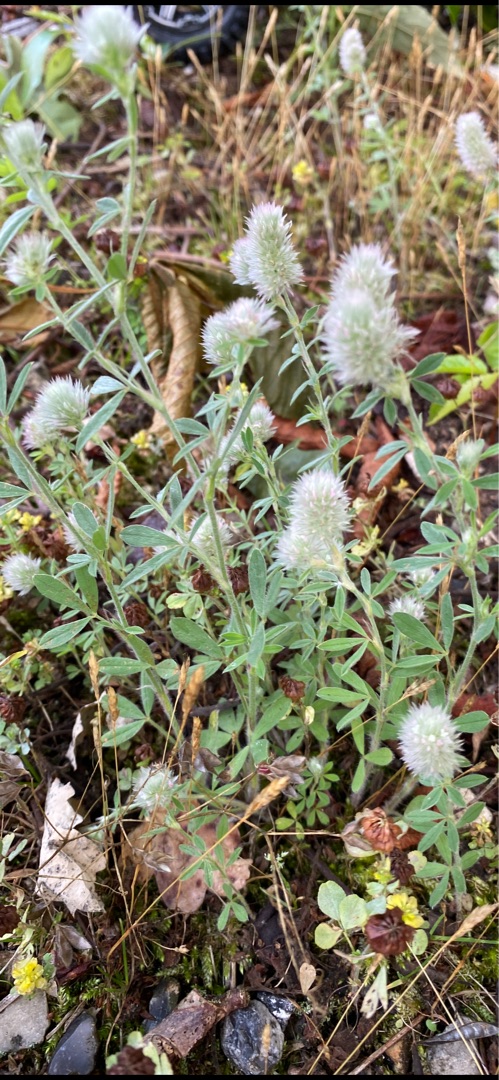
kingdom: Plantae
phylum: Tracheophyta
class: Magnoliopsida
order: Fabales
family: Fabaceae
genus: Trifolium
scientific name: Trifolium arvense
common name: Hare-kløver
